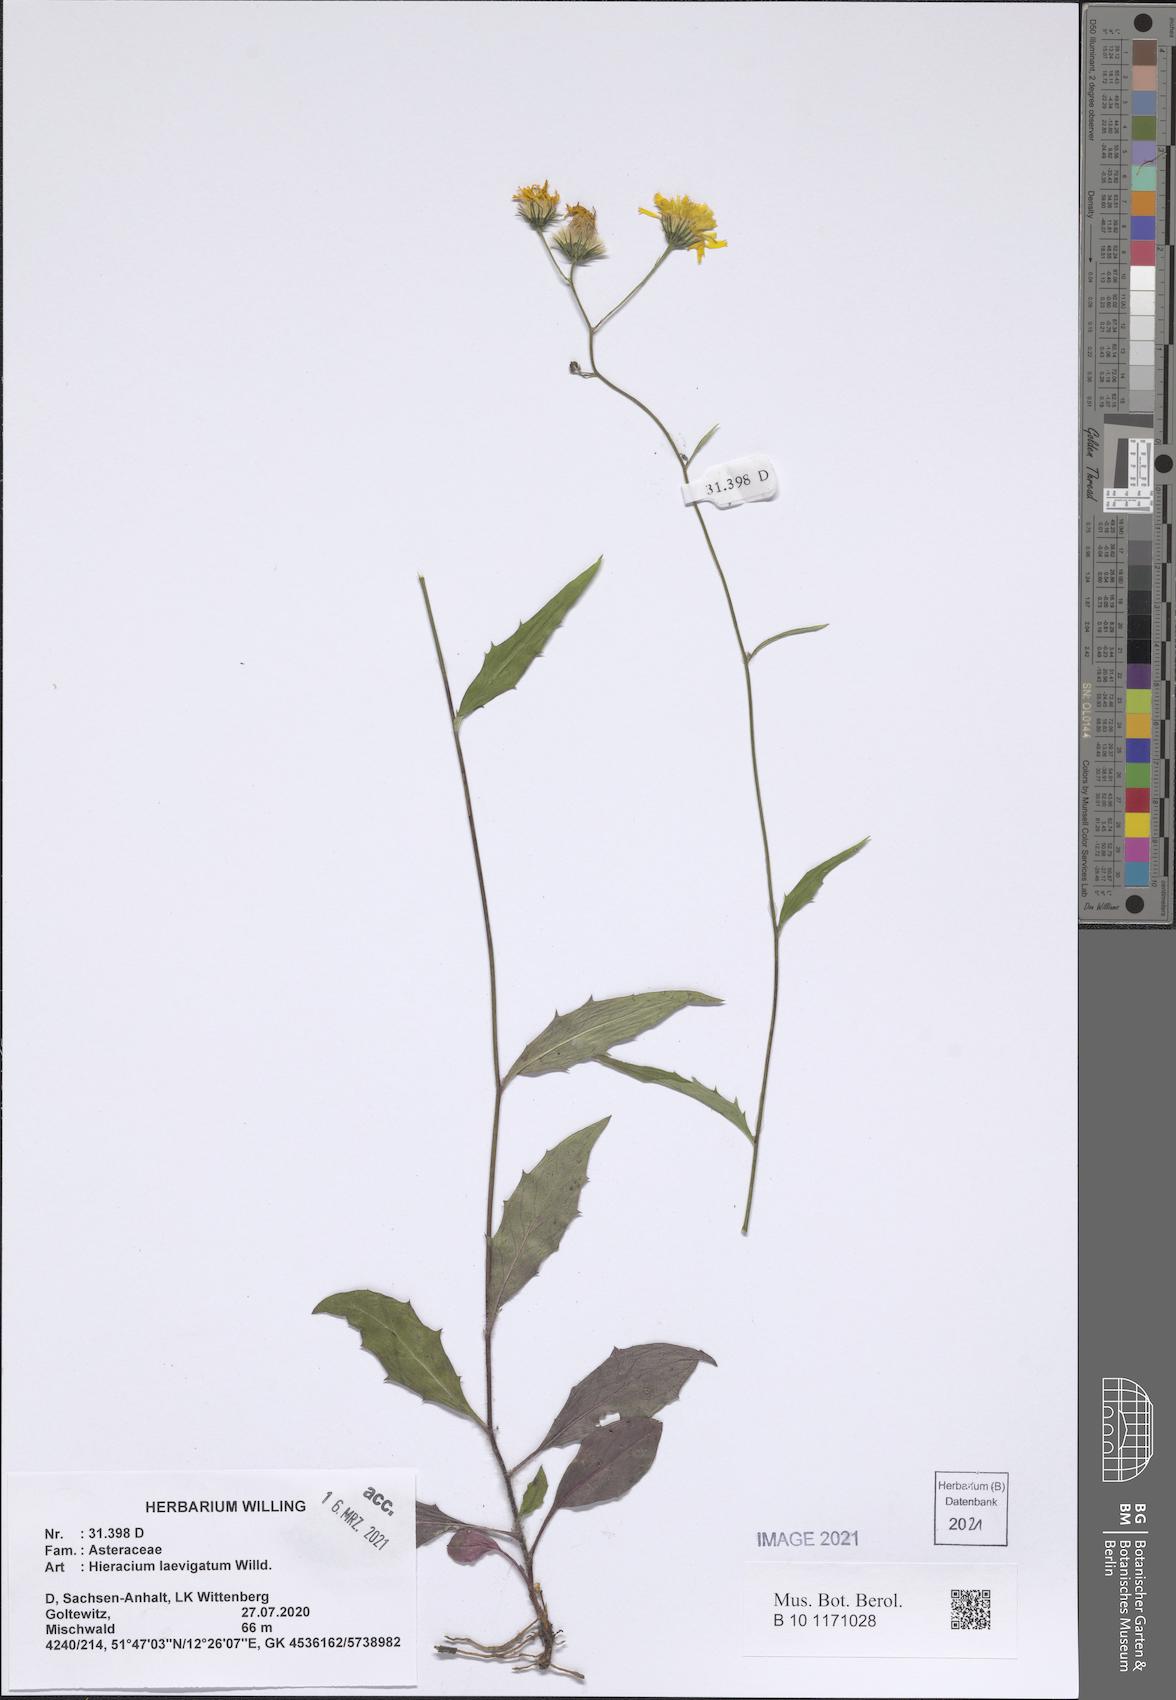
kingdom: Plantae
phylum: Tracheophyta
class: Magnoliopsida
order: Asterales
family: Asteraceae
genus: Hieracium
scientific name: Hieracium laevigatum
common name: Smooth hawkweed
